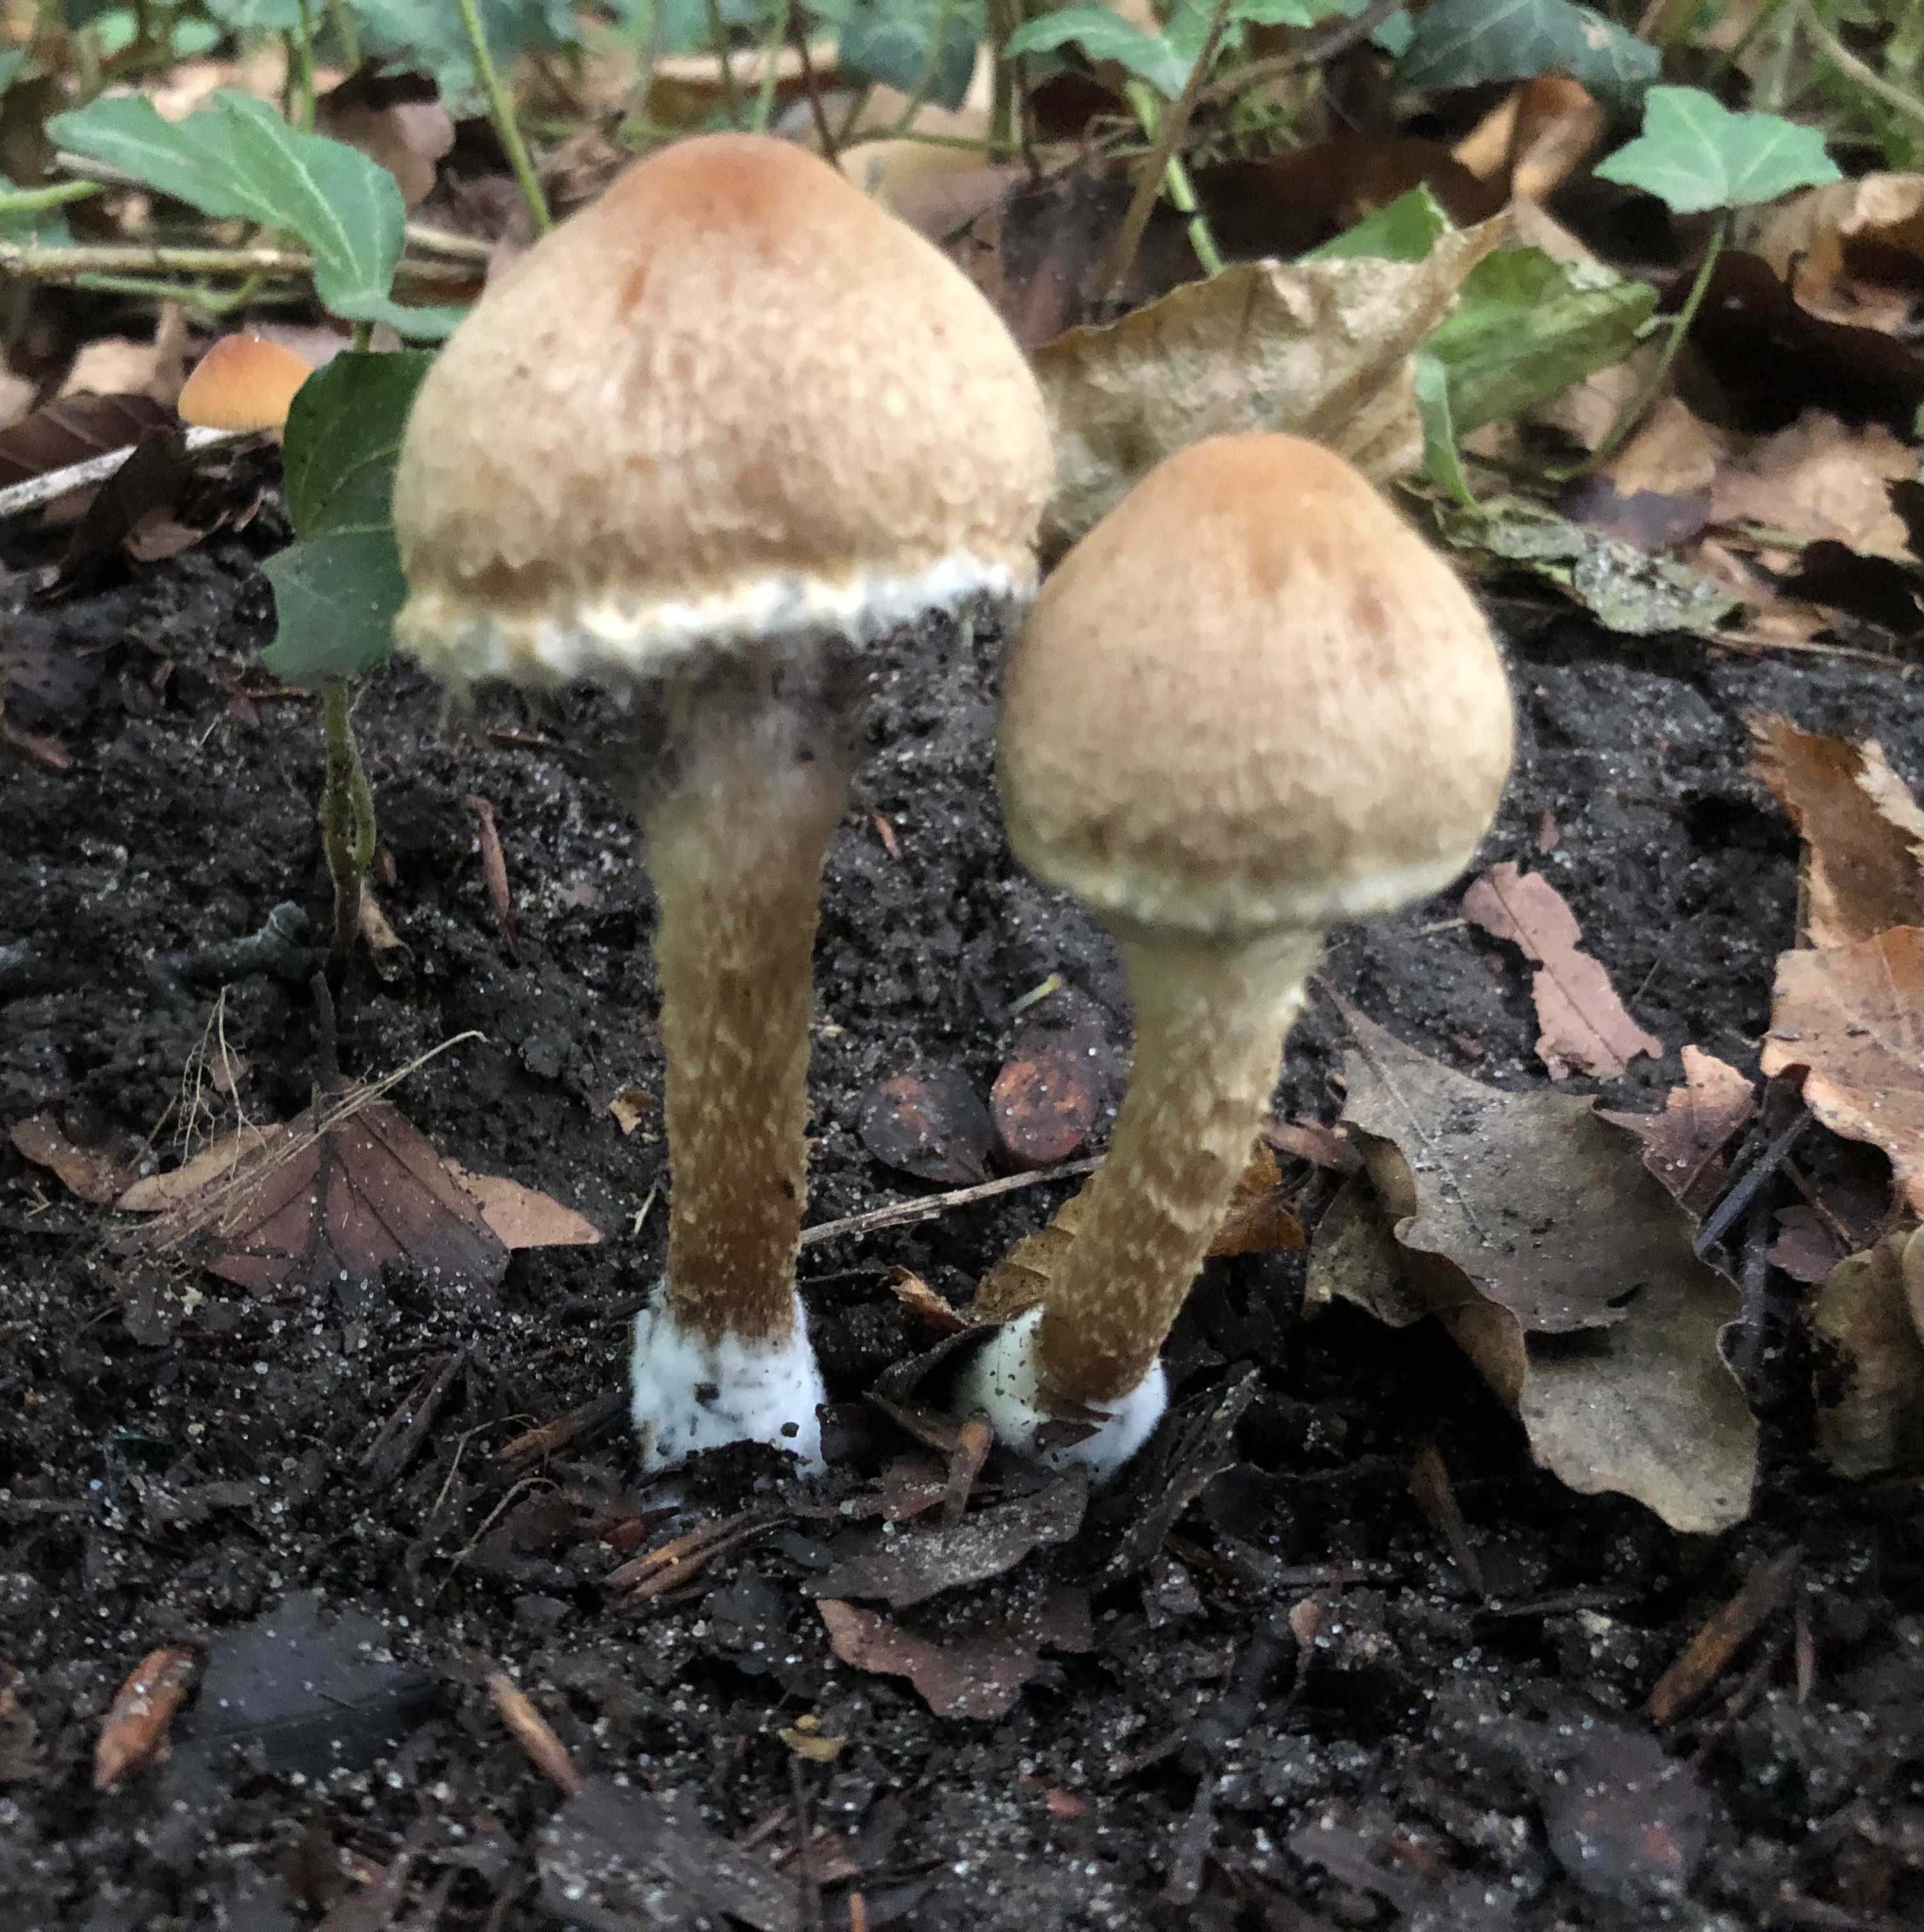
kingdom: Fungi
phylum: Basidiomycota
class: Agaricomycetes
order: Agaricales
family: Psathyrellaceae
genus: Lacrymaria
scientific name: Lacrymaria lacrymabunda
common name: grædende mørkhat
